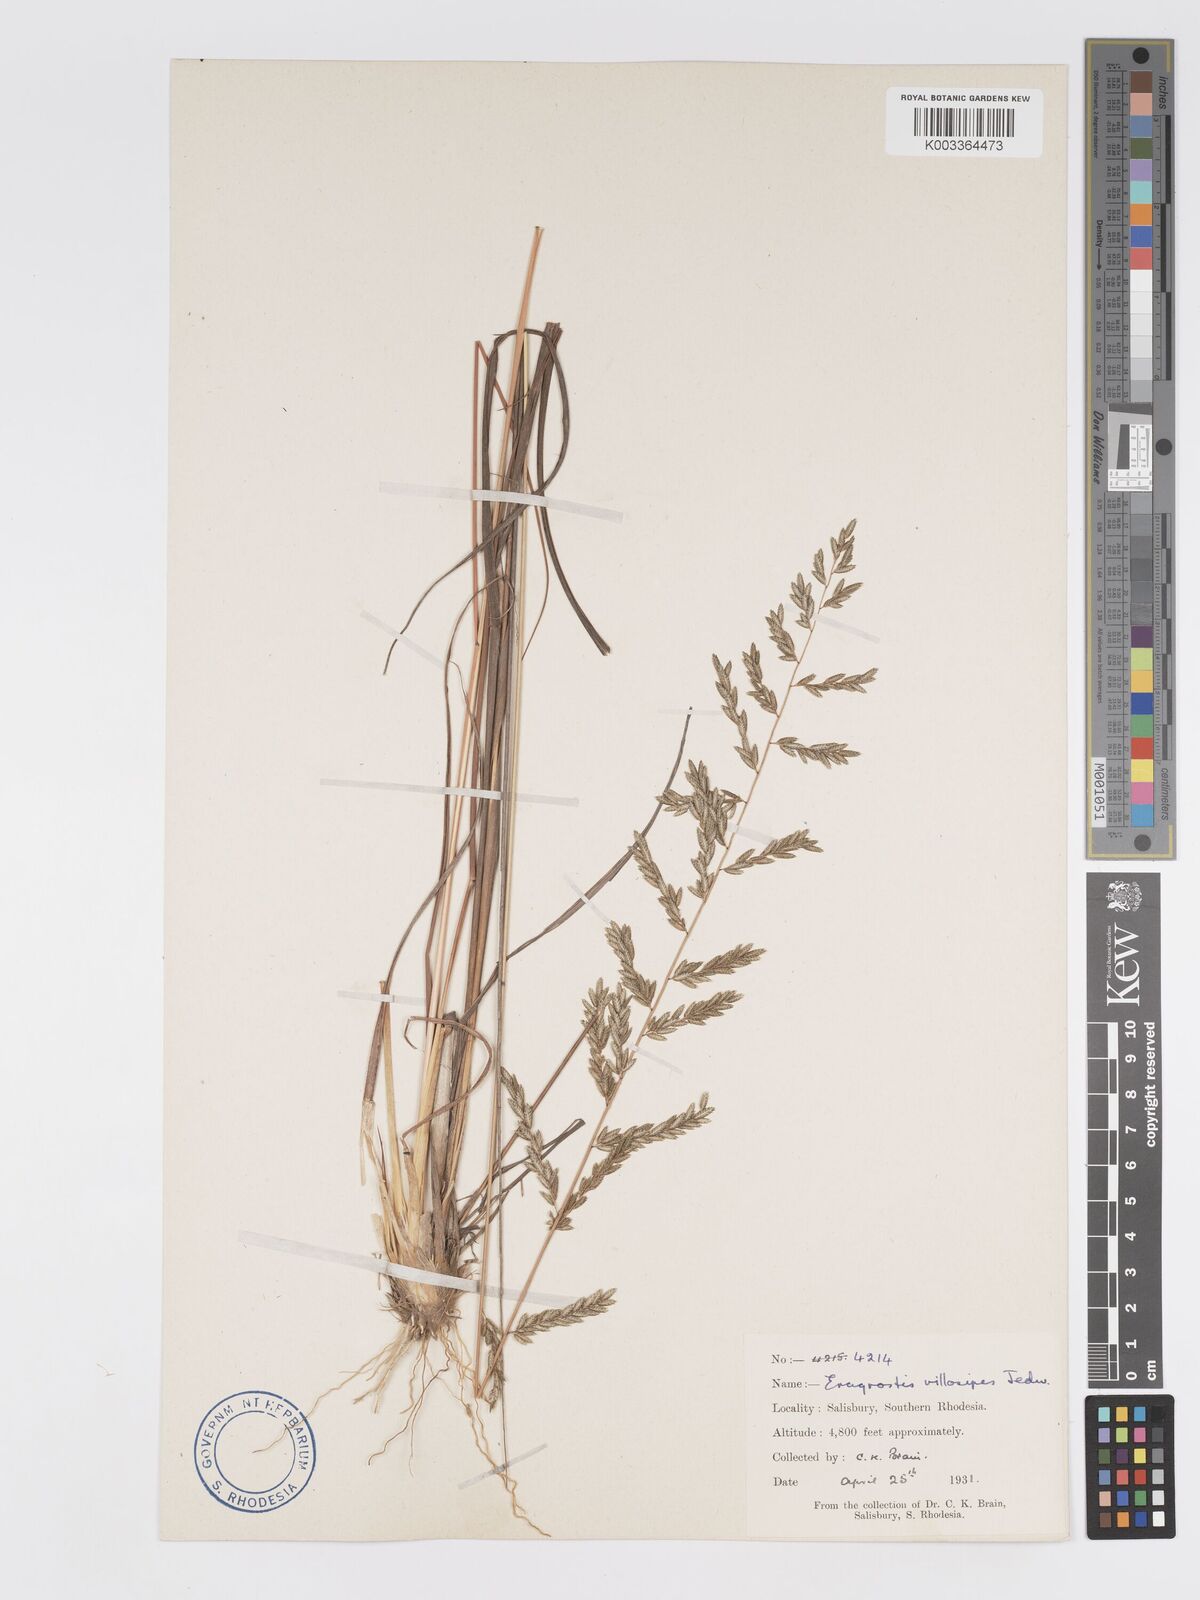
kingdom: Plantae
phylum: Tracheophyta
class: Liliopsida
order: Poales
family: Poaceae
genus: Eragrostis
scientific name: Eragrostis sclerantha
